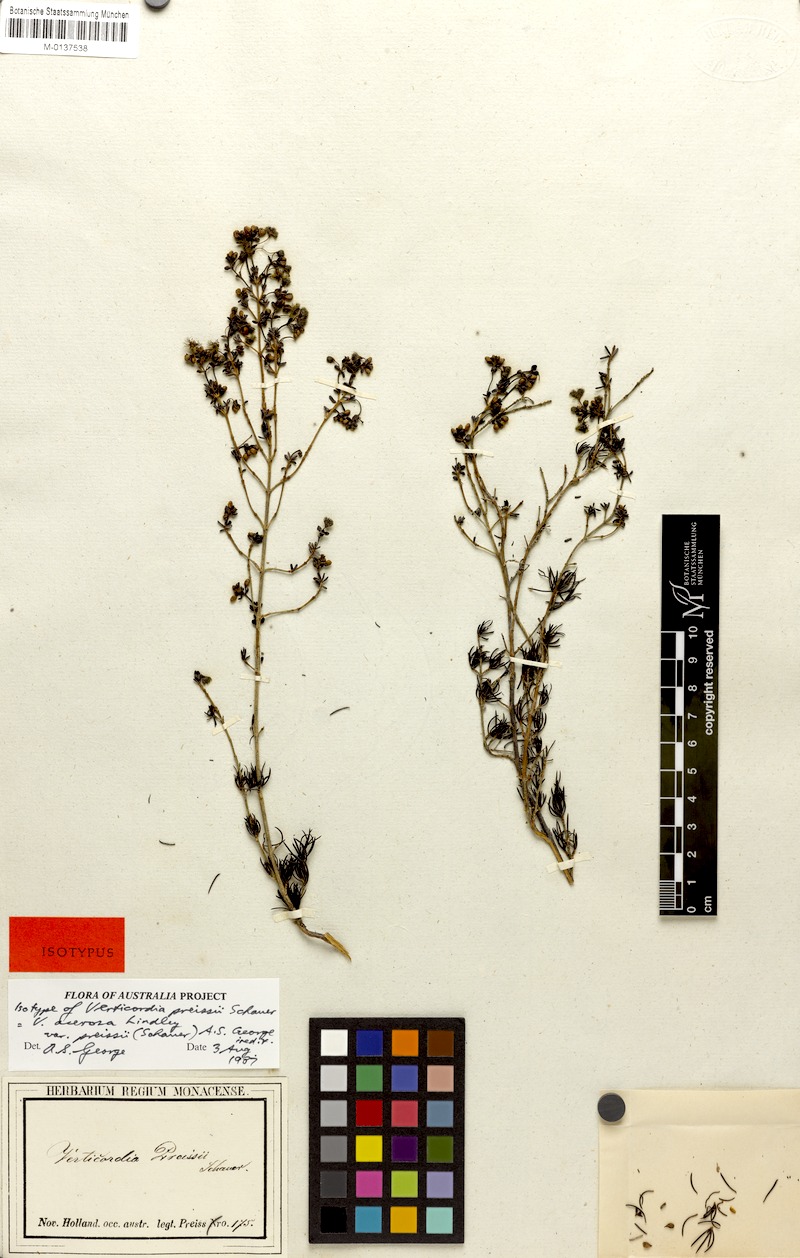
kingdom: Plantae
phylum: Tracheophyta
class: Magnoliopsida
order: Myrtales
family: Myrtaceae
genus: Verticordia
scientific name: Verticordia acerosa
